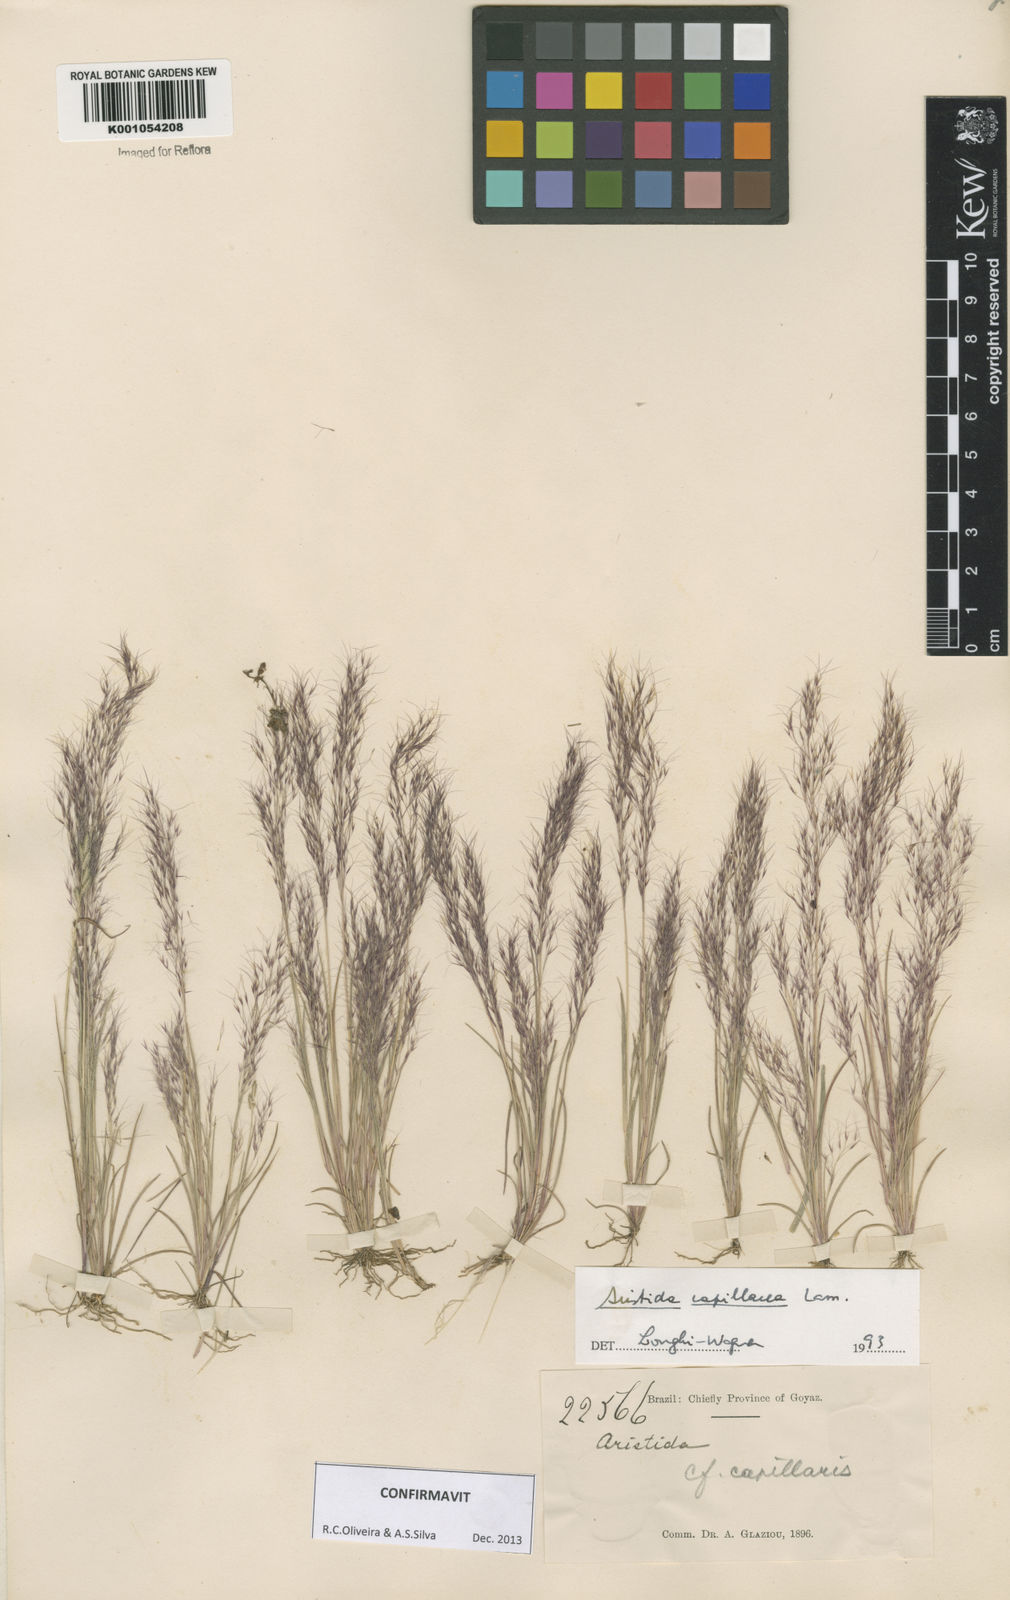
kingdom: Plantae
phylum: Tracheophyta
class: Liliopsida
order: Poales
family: Poaceae
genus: Aristida
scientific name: Aristida capillacea
